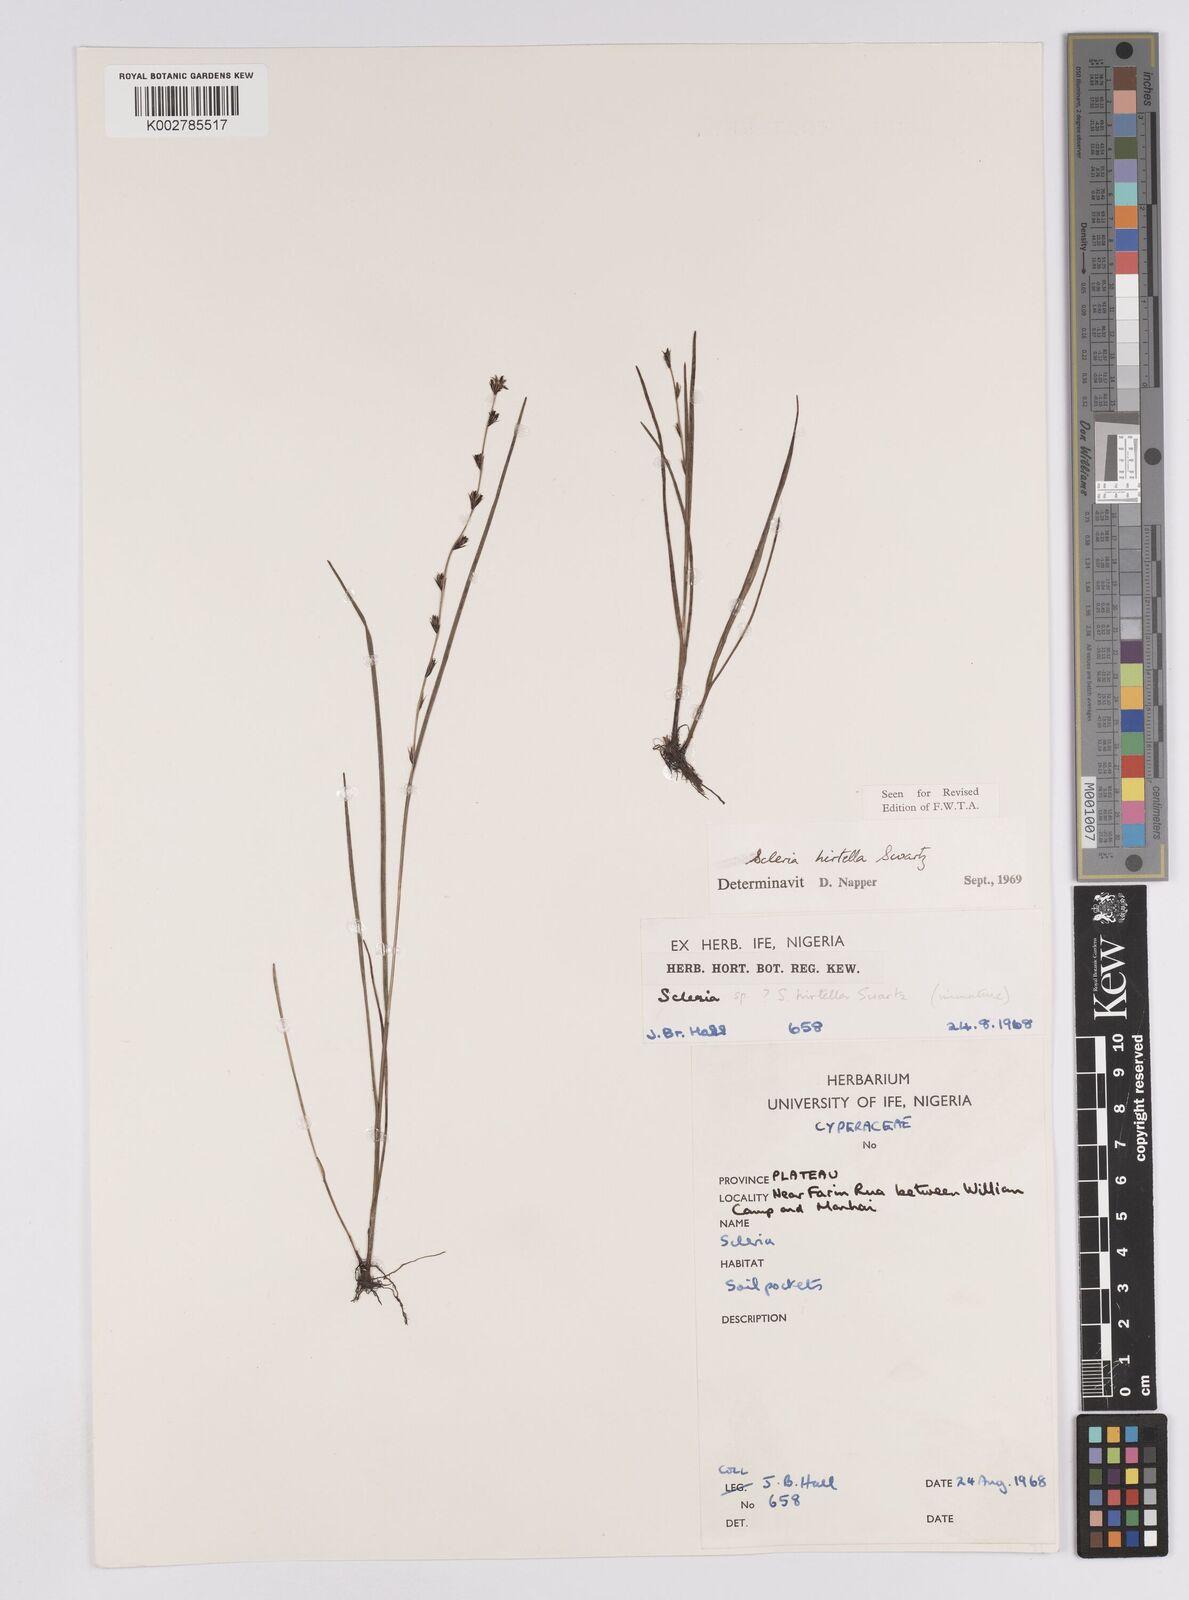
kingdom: Plantae
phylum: Tracheophyta
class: Liliopsida
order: Poales
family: Cyperaceae
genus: Scleria
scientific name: Scleria tricholepis
